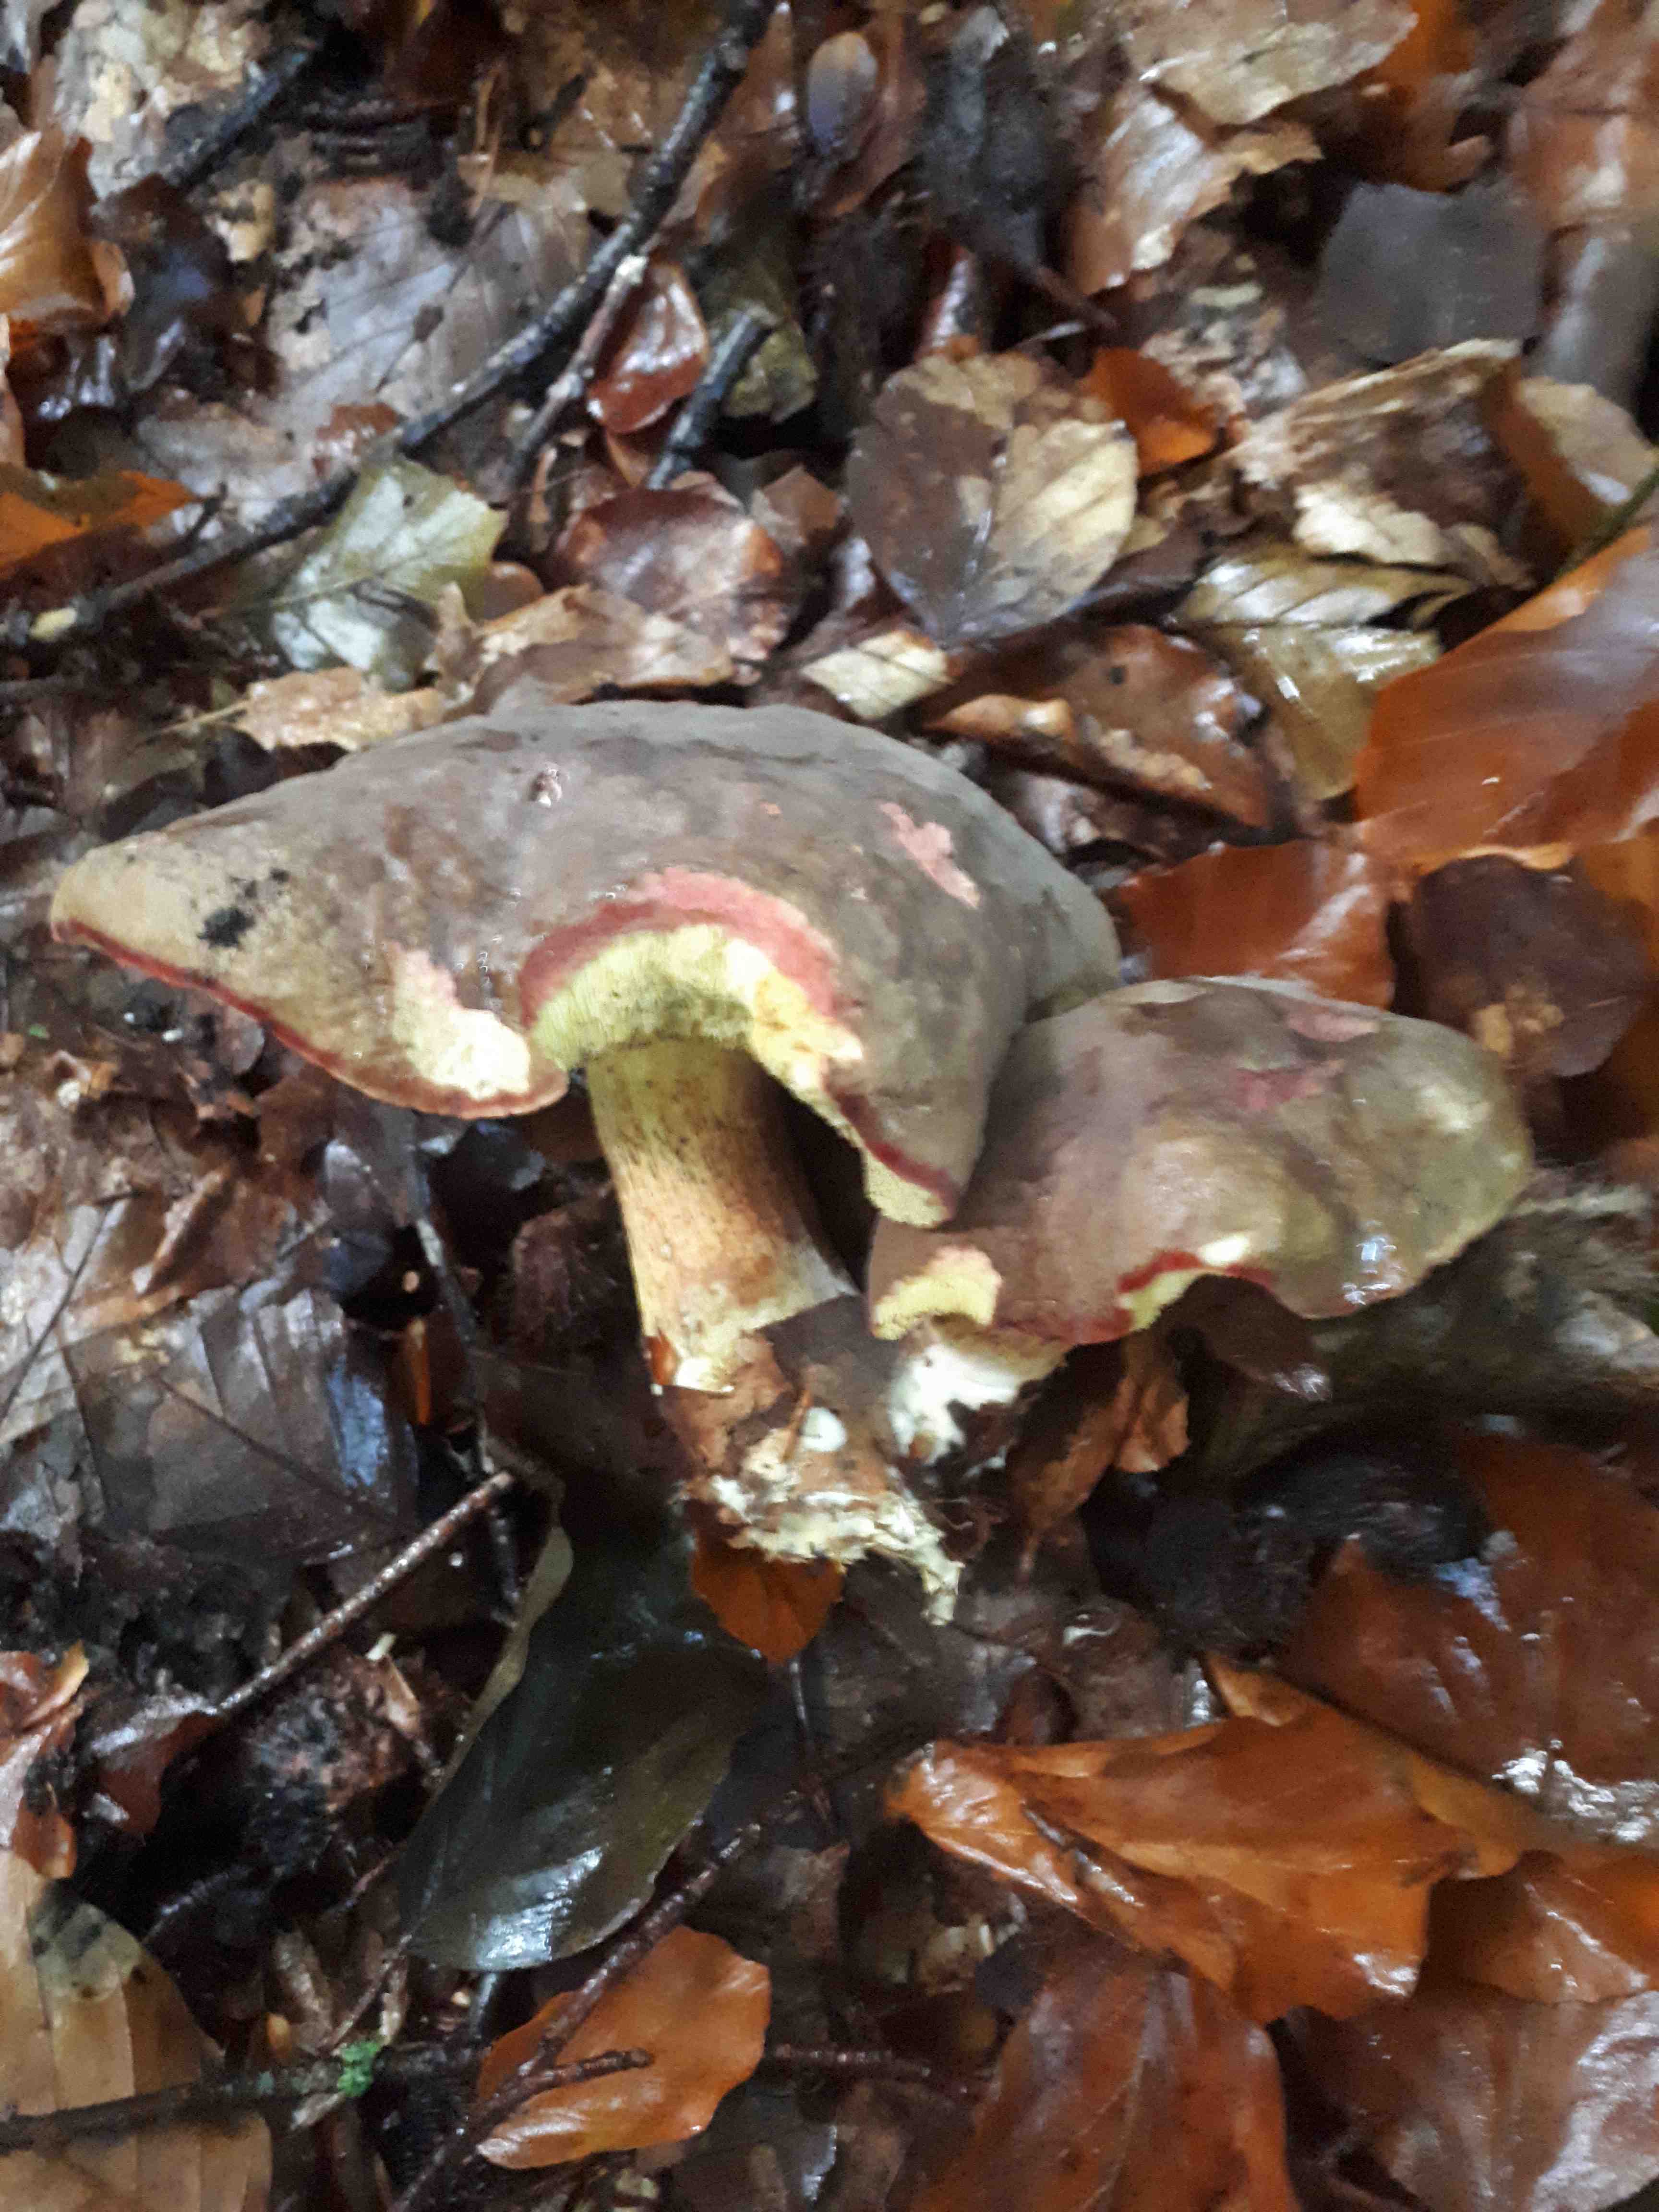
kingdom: Fungi
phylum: Basidiomycota
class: Agaricomycetes
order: Boletales
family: Boletaceae
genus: Xerocomellus
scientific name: Xerocomellus pruinatus
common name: dugget rørhat
